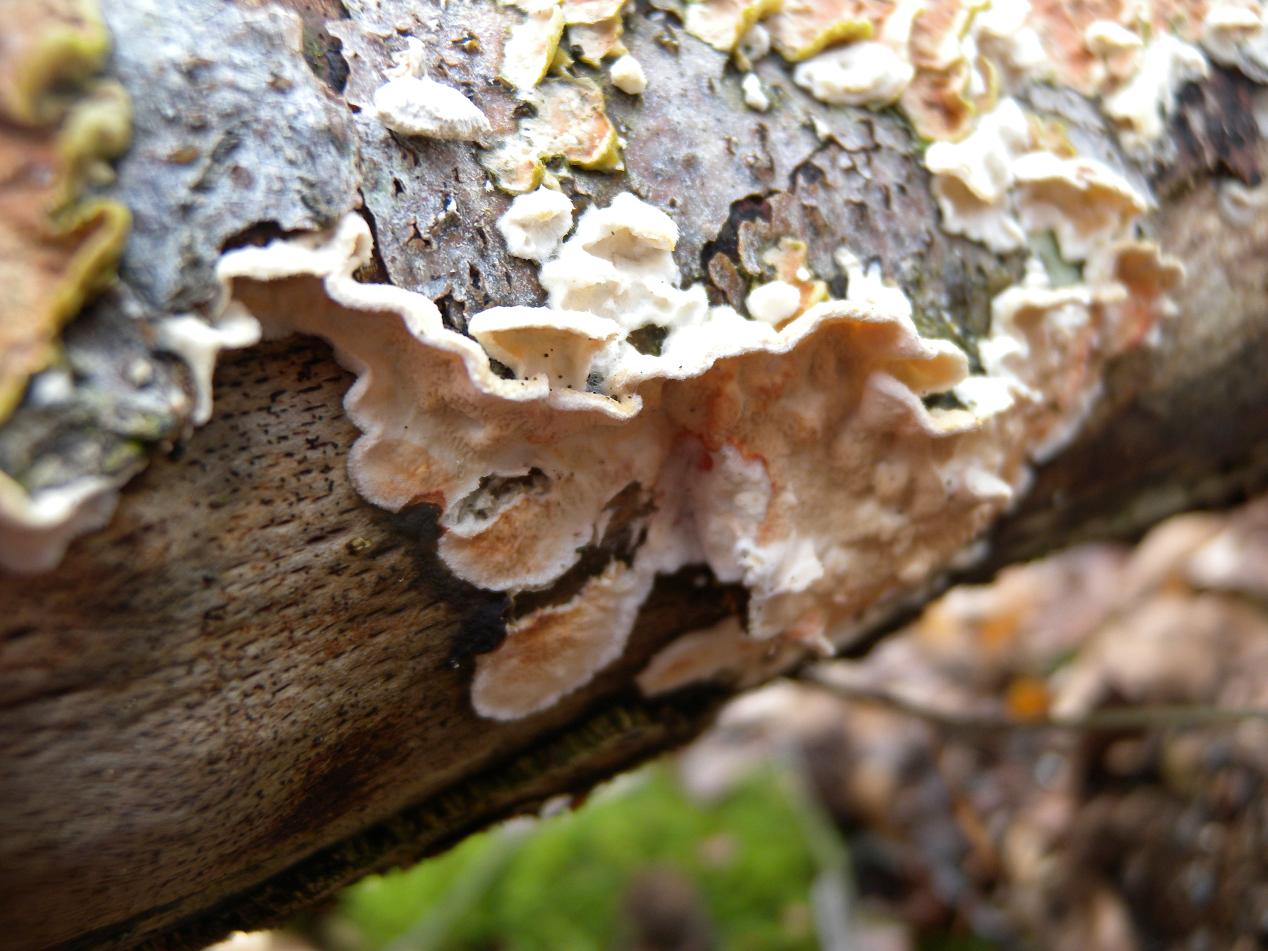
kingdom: Fungi
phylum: Basidiomycota
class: Agaricomycetes
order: Polyporales
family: Irpicaceae
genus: Byssomerulius
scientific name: Byssomerulius corium
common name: læder-åresvamp
